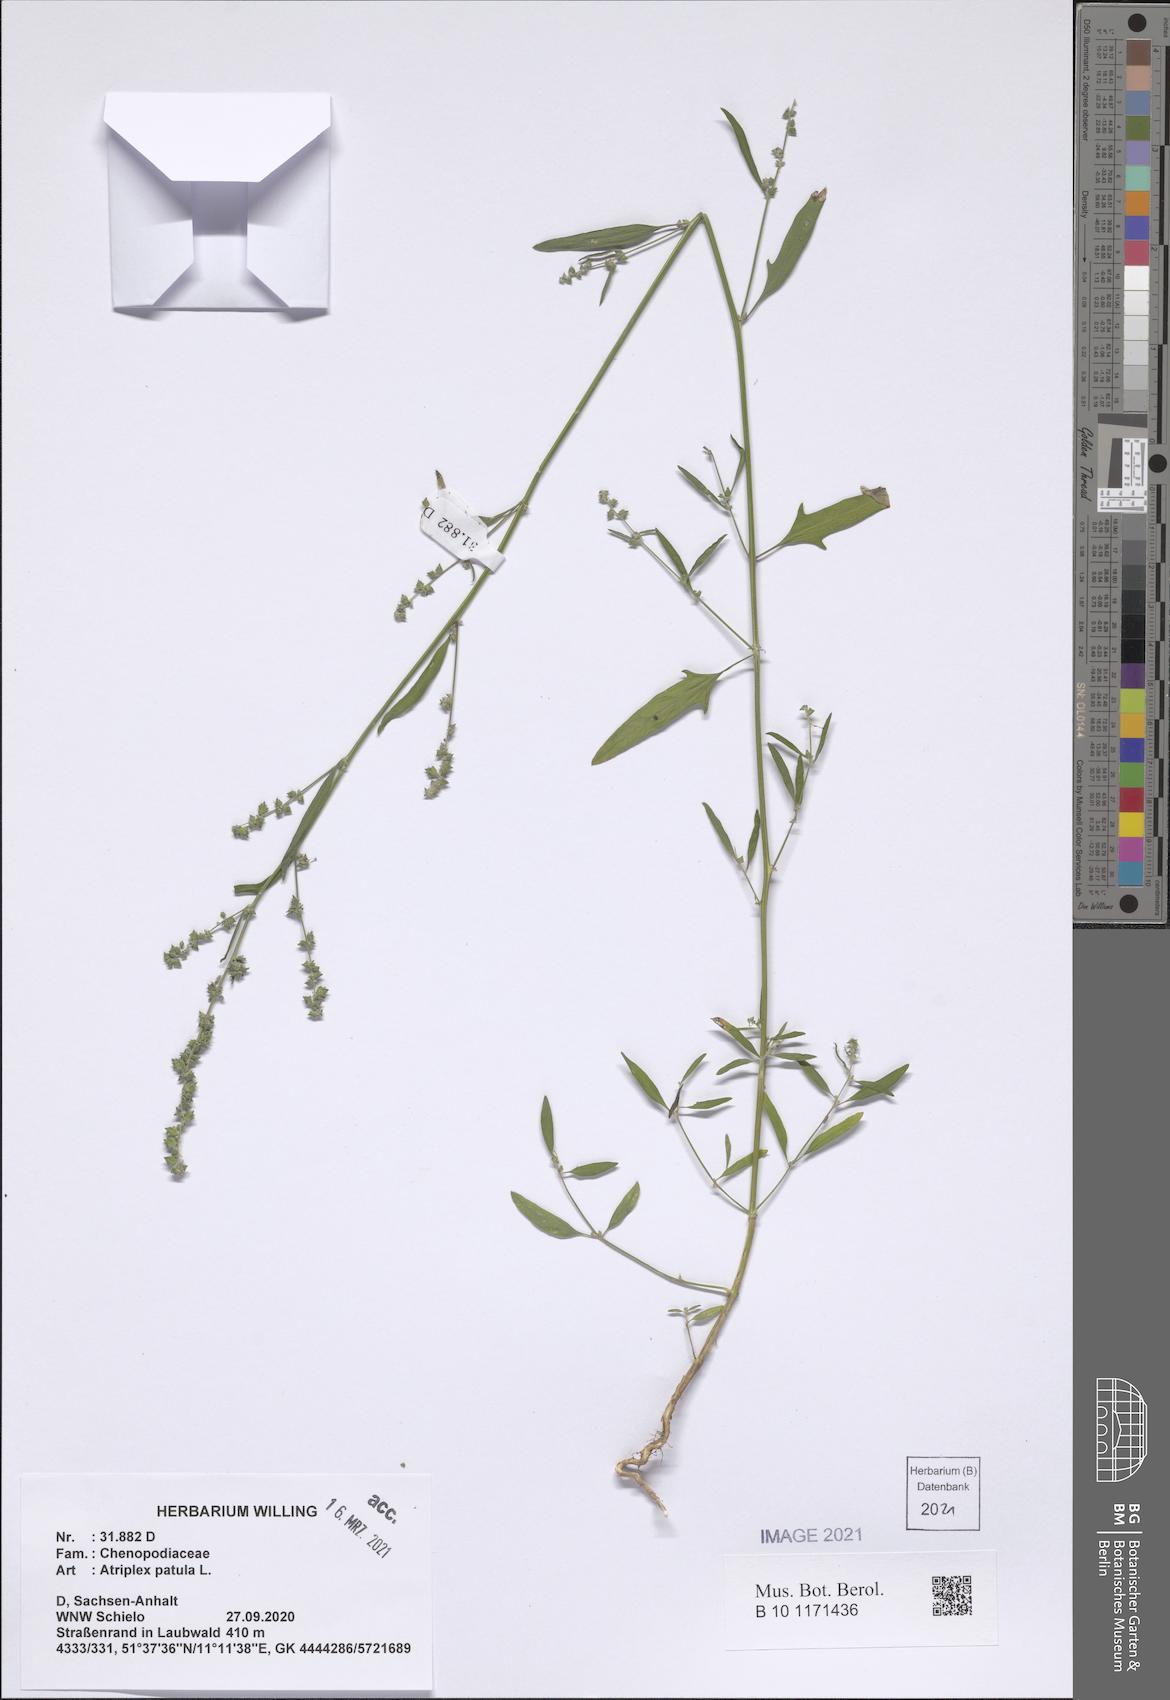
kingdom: Plantae
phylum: Tracheophyta
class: Magnoliopsida
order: Caryophyllales
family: Amaranthaceae
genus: Atriplex
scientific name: Atriplex patula
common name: Common orache
